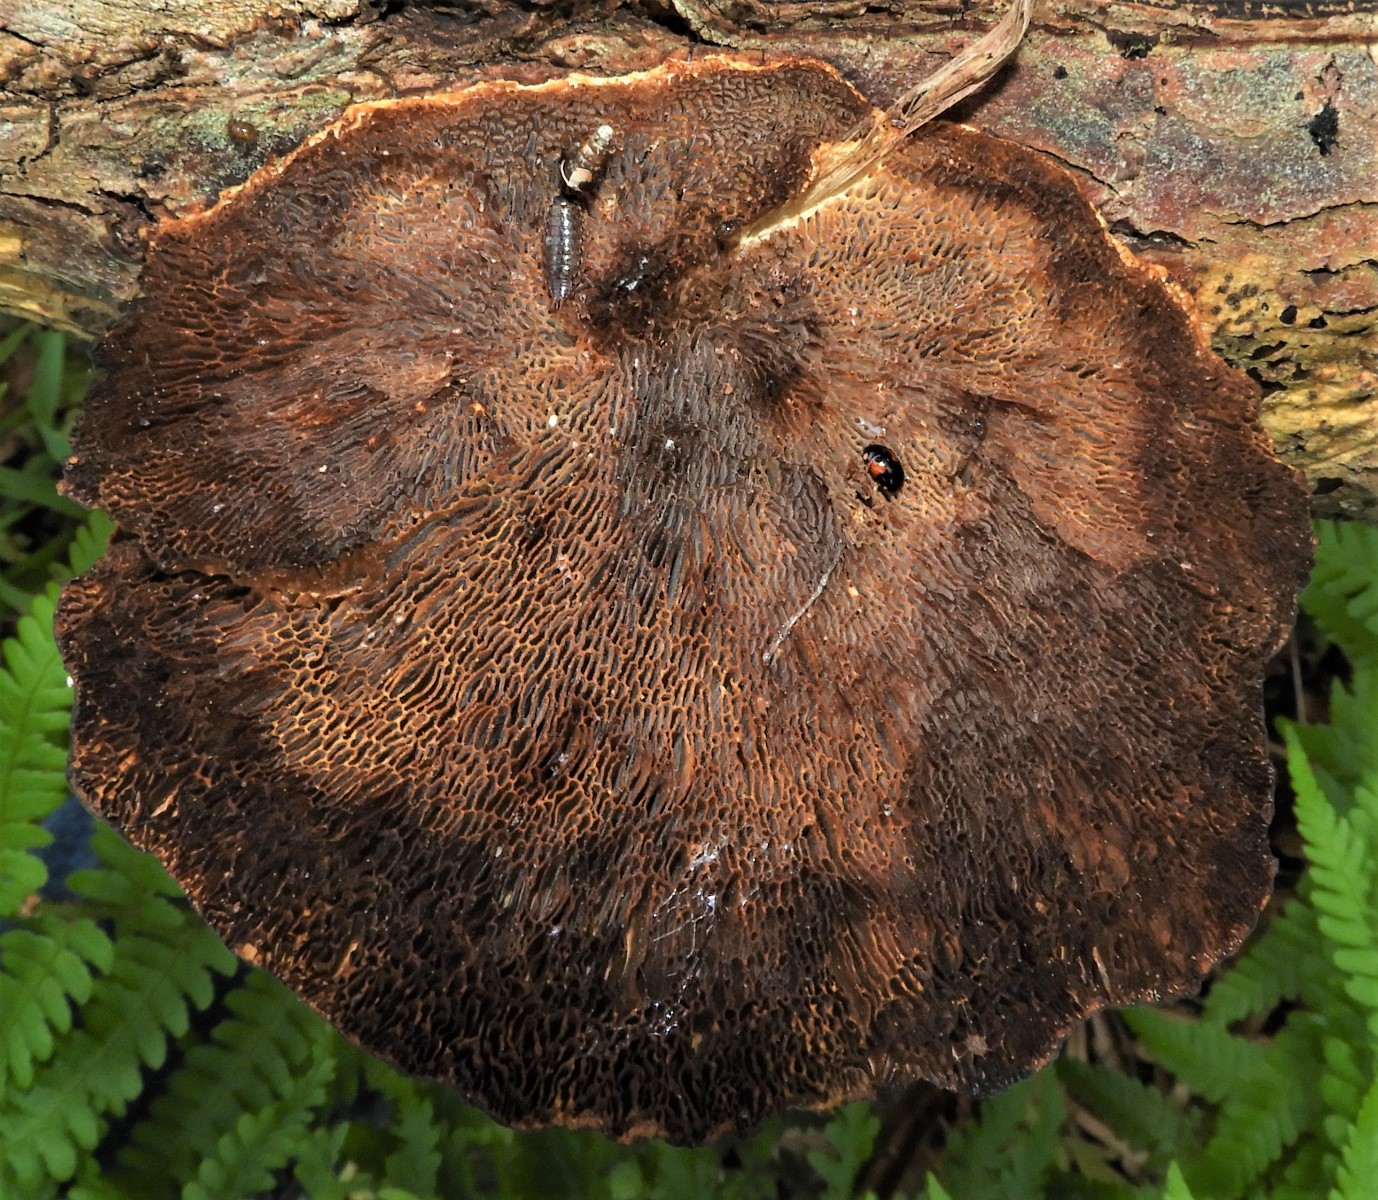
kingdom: Fungi
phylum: Basidiomycota
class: Agaricomycetes
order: Polyporales
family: Polyporaceae
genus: Daedaleopsis
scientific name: Daedaleopsis confragosa
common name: rødmende læderporesvamp
